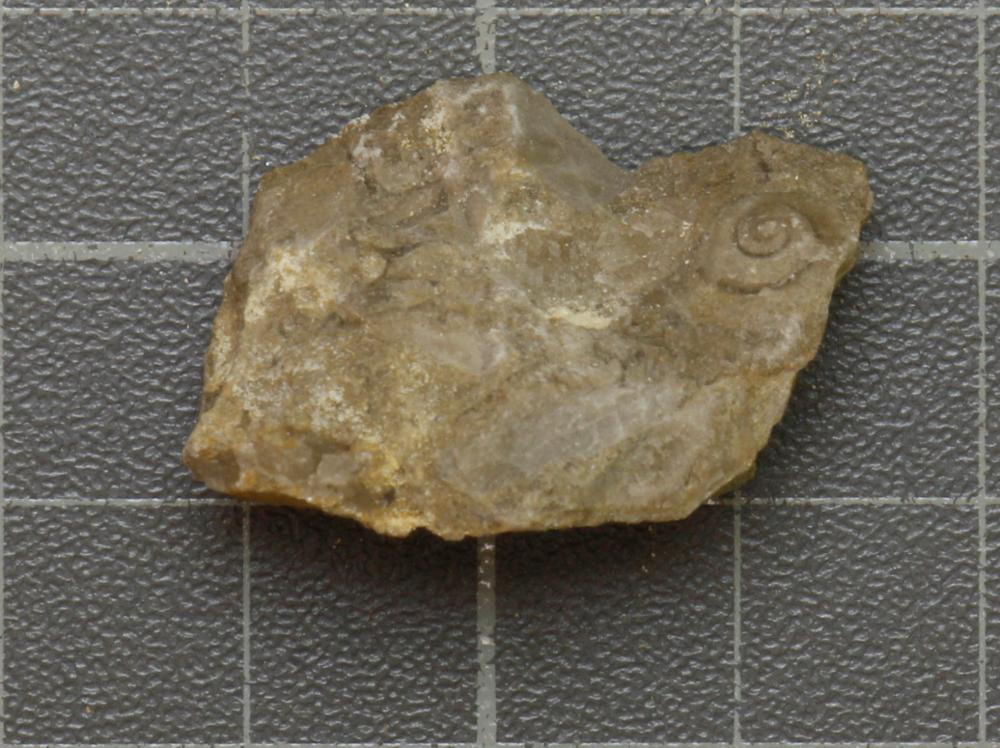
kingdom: Animalia
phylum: Mollusca
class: Gastropoda
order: Neogastropoda
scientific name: Neogastropoda
